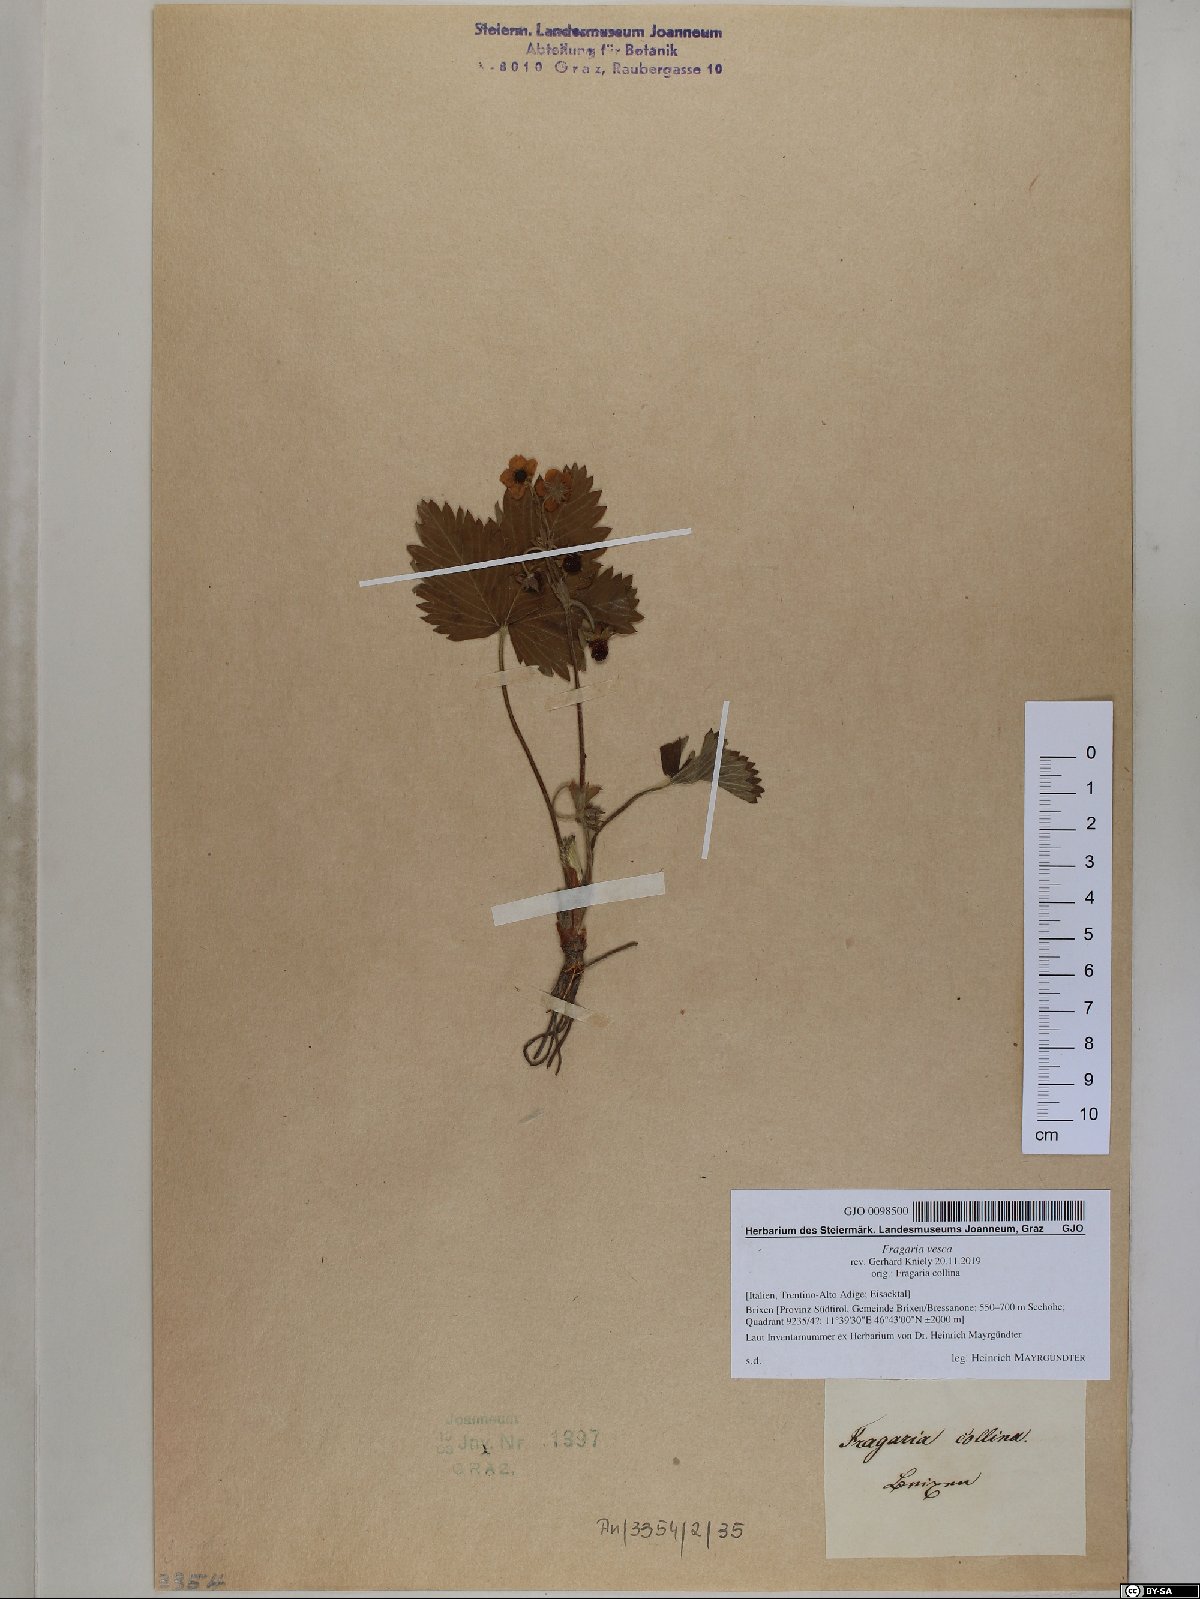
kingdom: Plantae
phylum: Tracheophyta
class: Magnoliopsida
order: Rosales
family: Rosaceae
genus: Fragaria
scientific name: Fragaria vesca
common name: Wild strawberry
